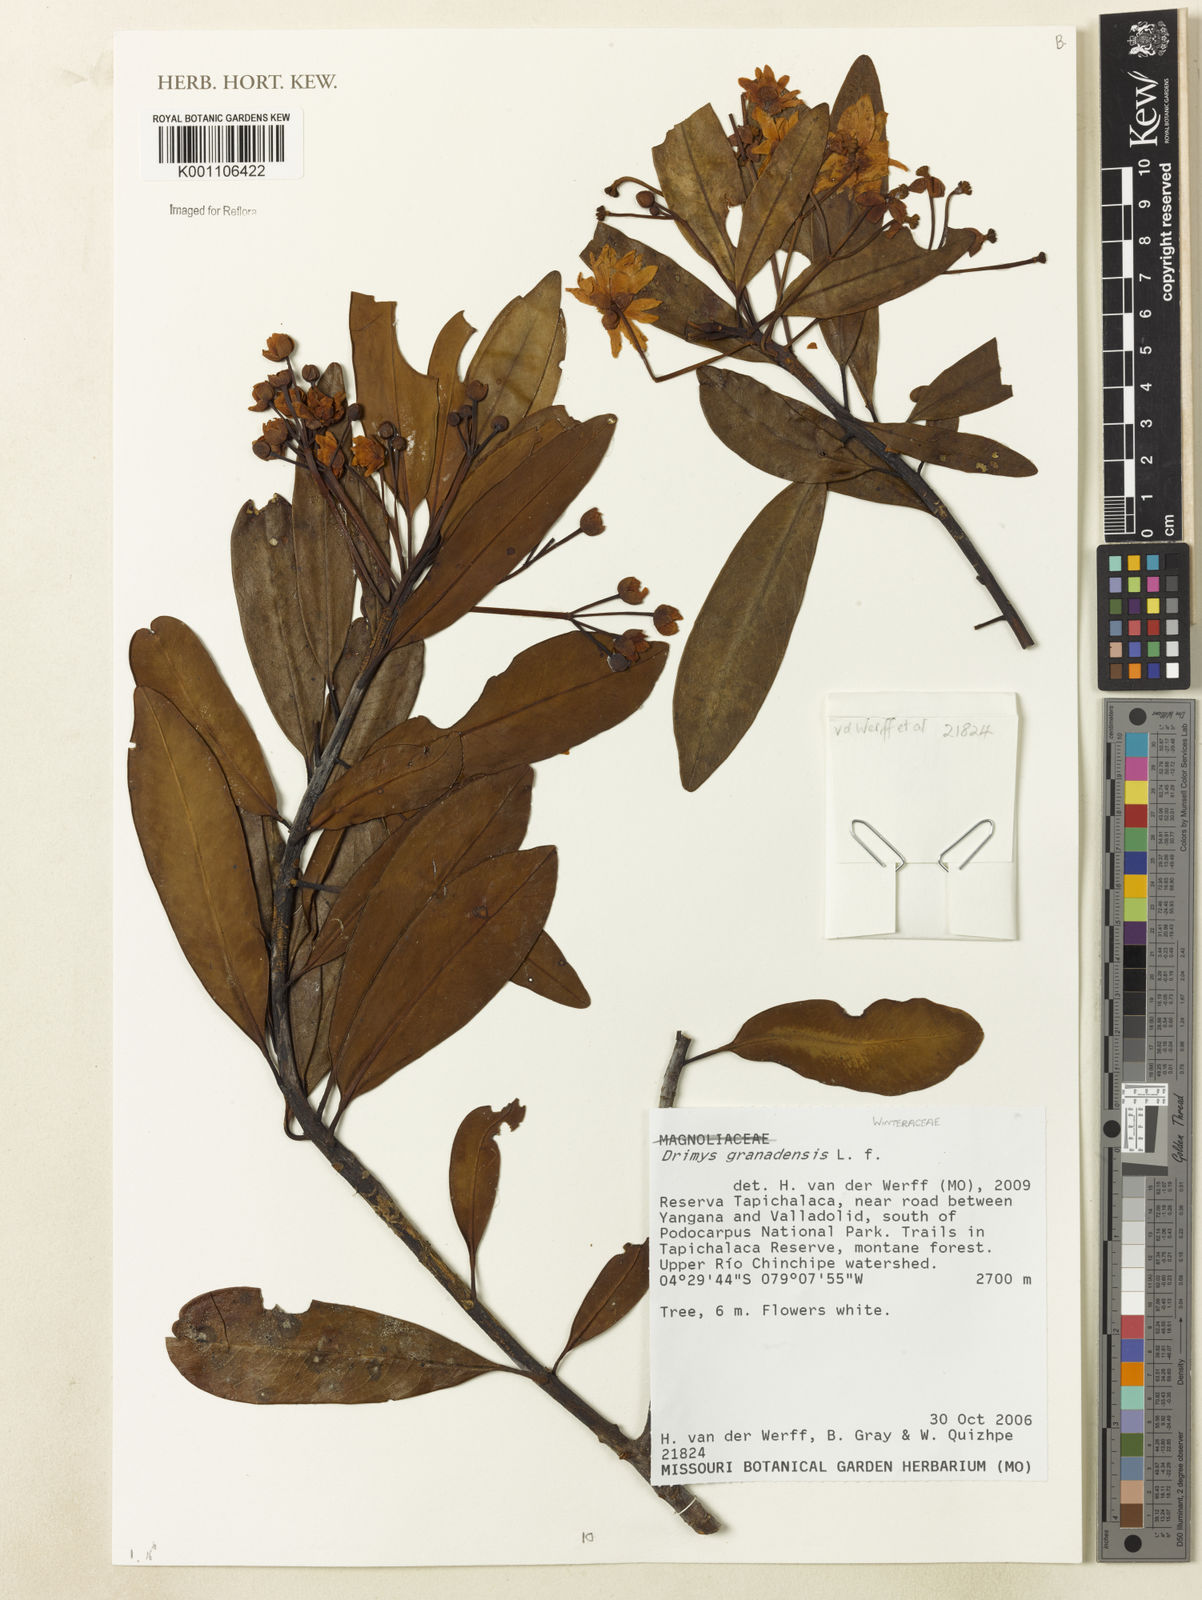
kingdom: Plantae
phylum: Tracheophyta
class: Magnoliopsida
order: Canellales
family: Winteraceae
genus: Drimys
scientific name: Drimys granadensis
